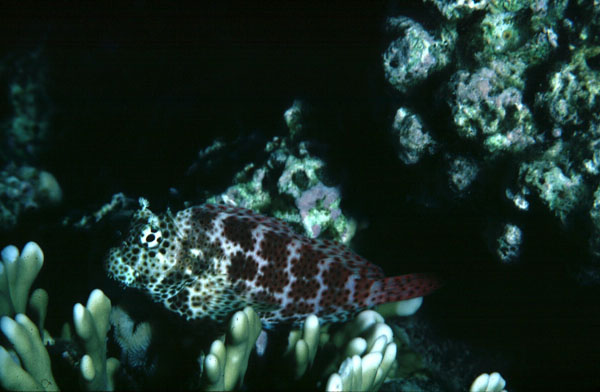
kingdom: Animalia
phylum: Chordata
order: Perciformes
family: Blenniidae
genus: Exallias
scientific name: Exallias brevis
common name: Leopard blenny
